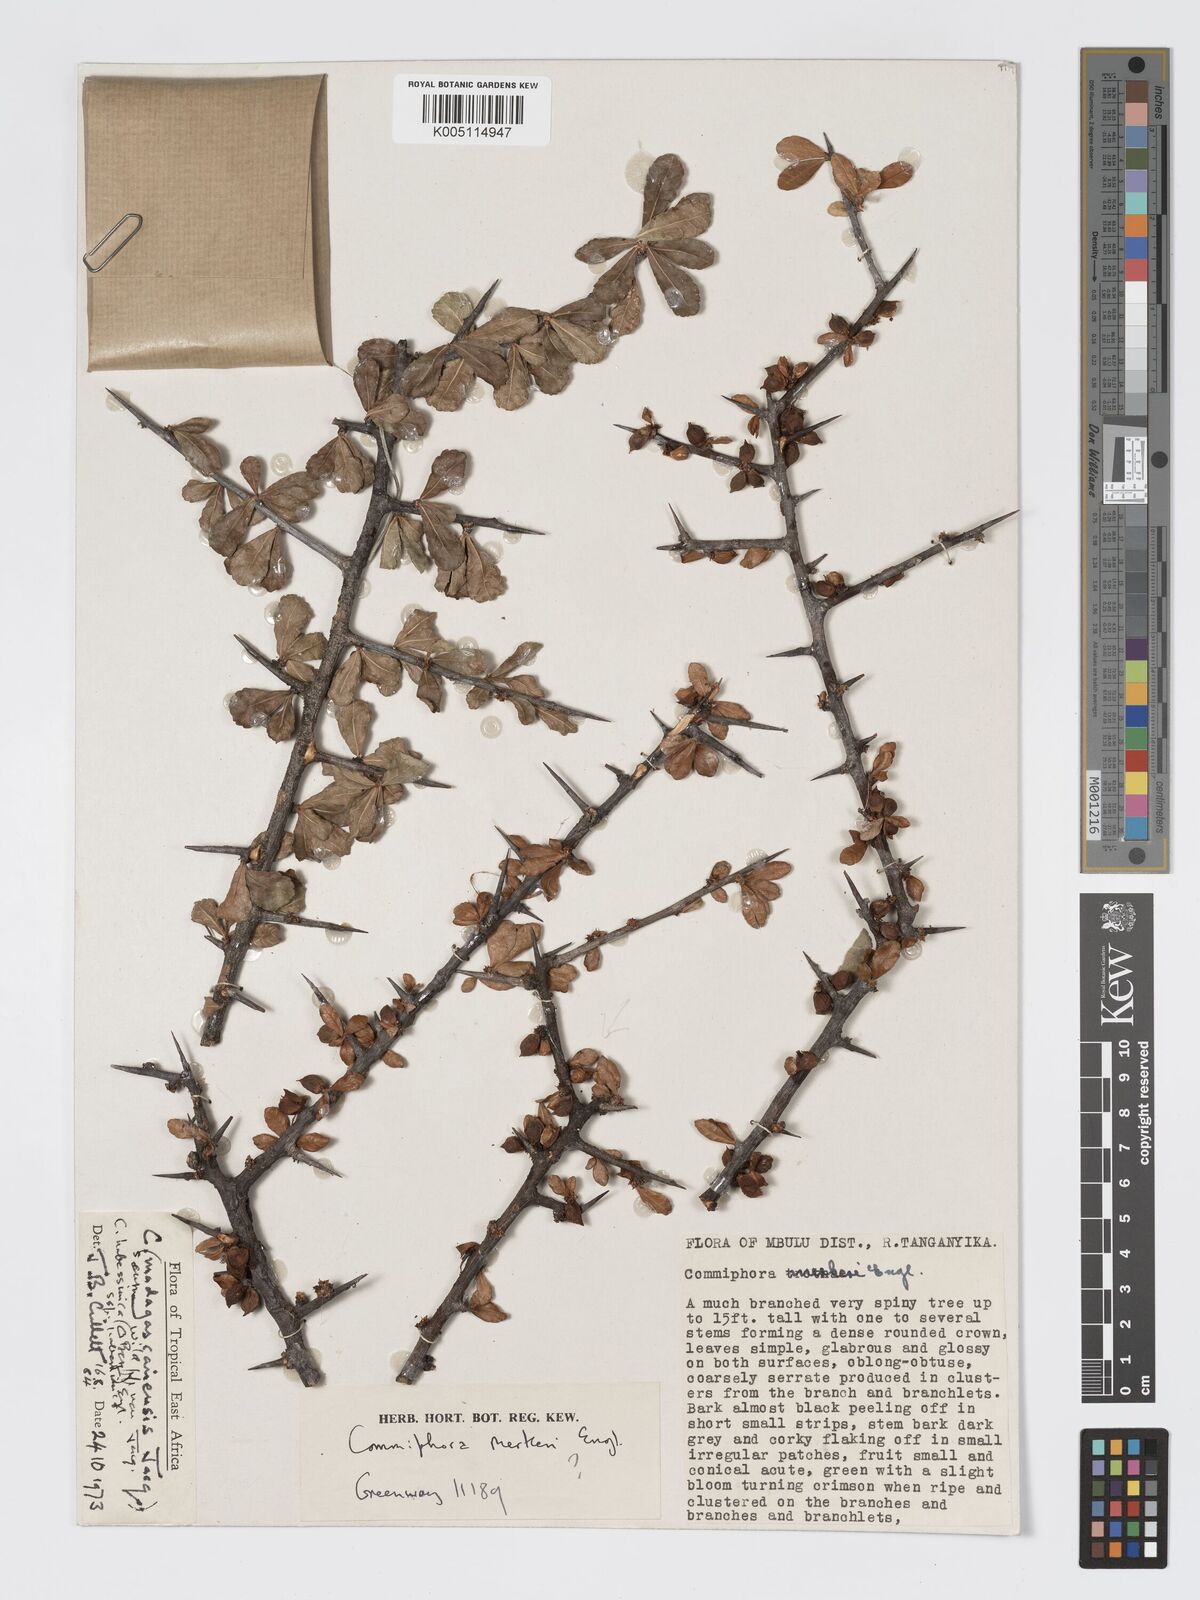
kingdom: Plantae
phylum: Tracheophyta
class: Magnoliopsida
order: Sapindales
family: Burseraceae
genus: Commiphora
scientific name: Commiphora kua
